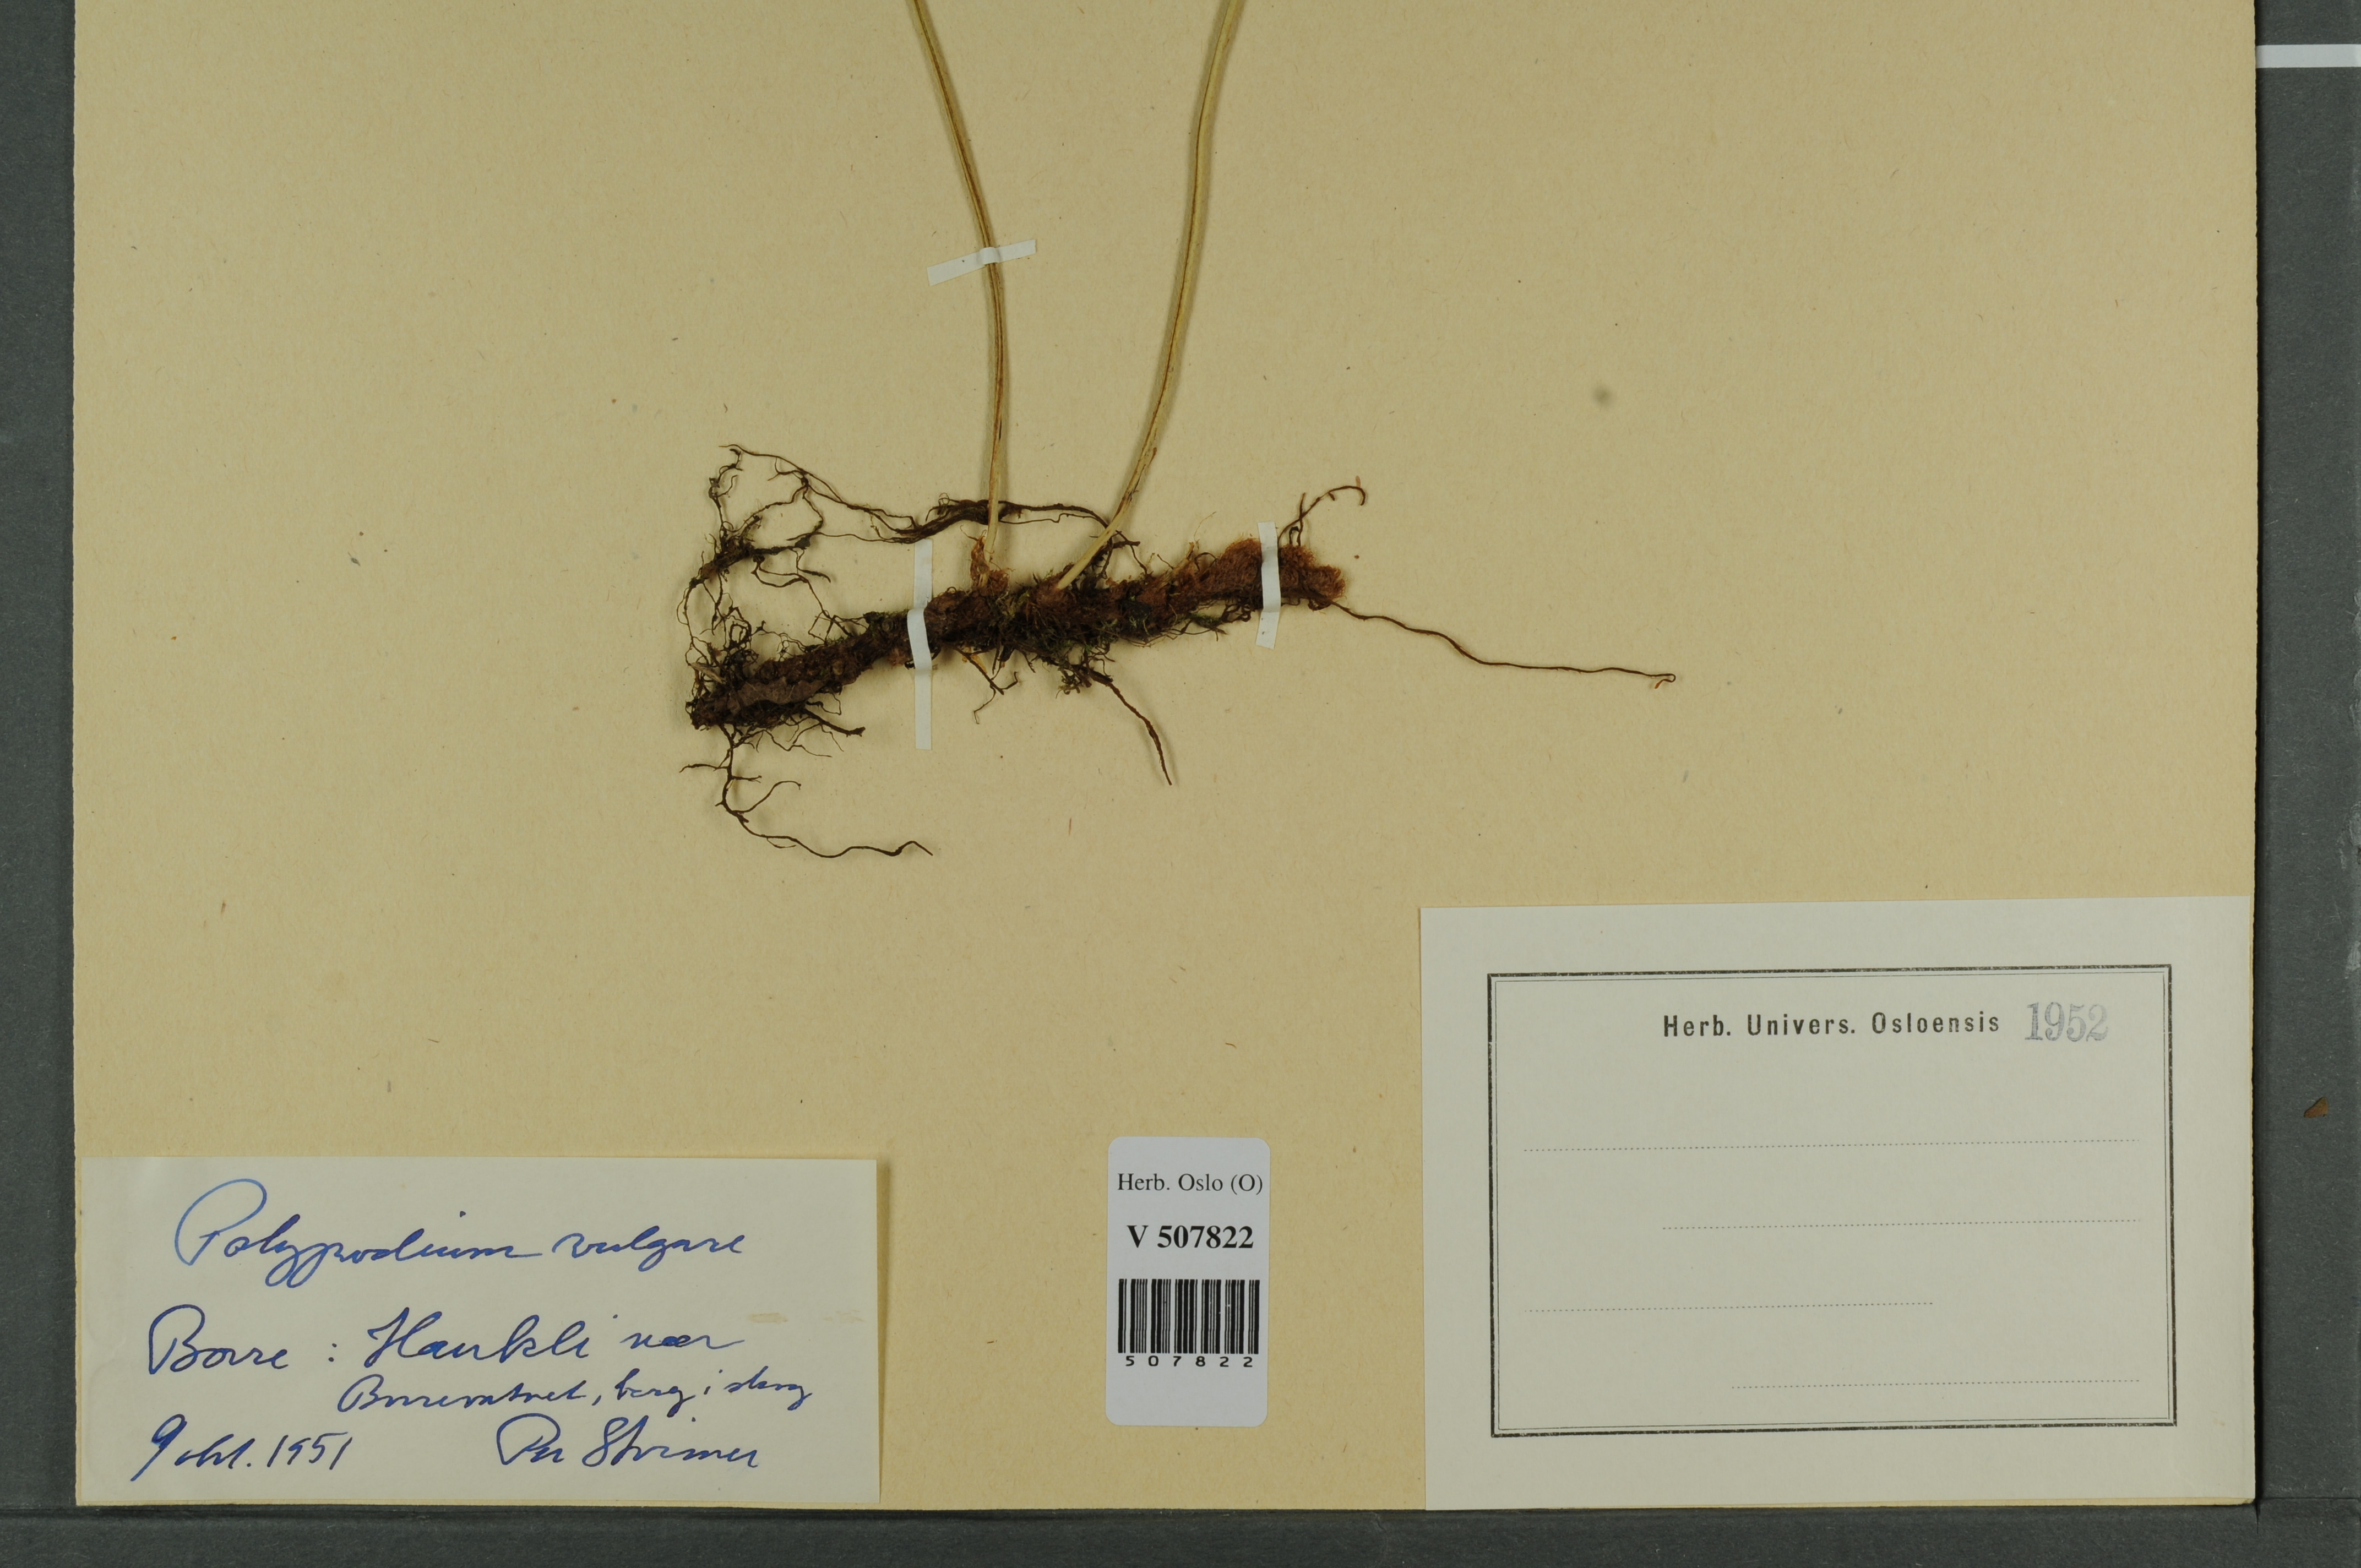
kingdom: Plantae
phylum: Tracheophyta
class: Polypodiopsida
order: Polypodiales
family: Polypodiaceae
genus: Polypodium
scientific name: Polypodium vulgare
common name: Common polypody
